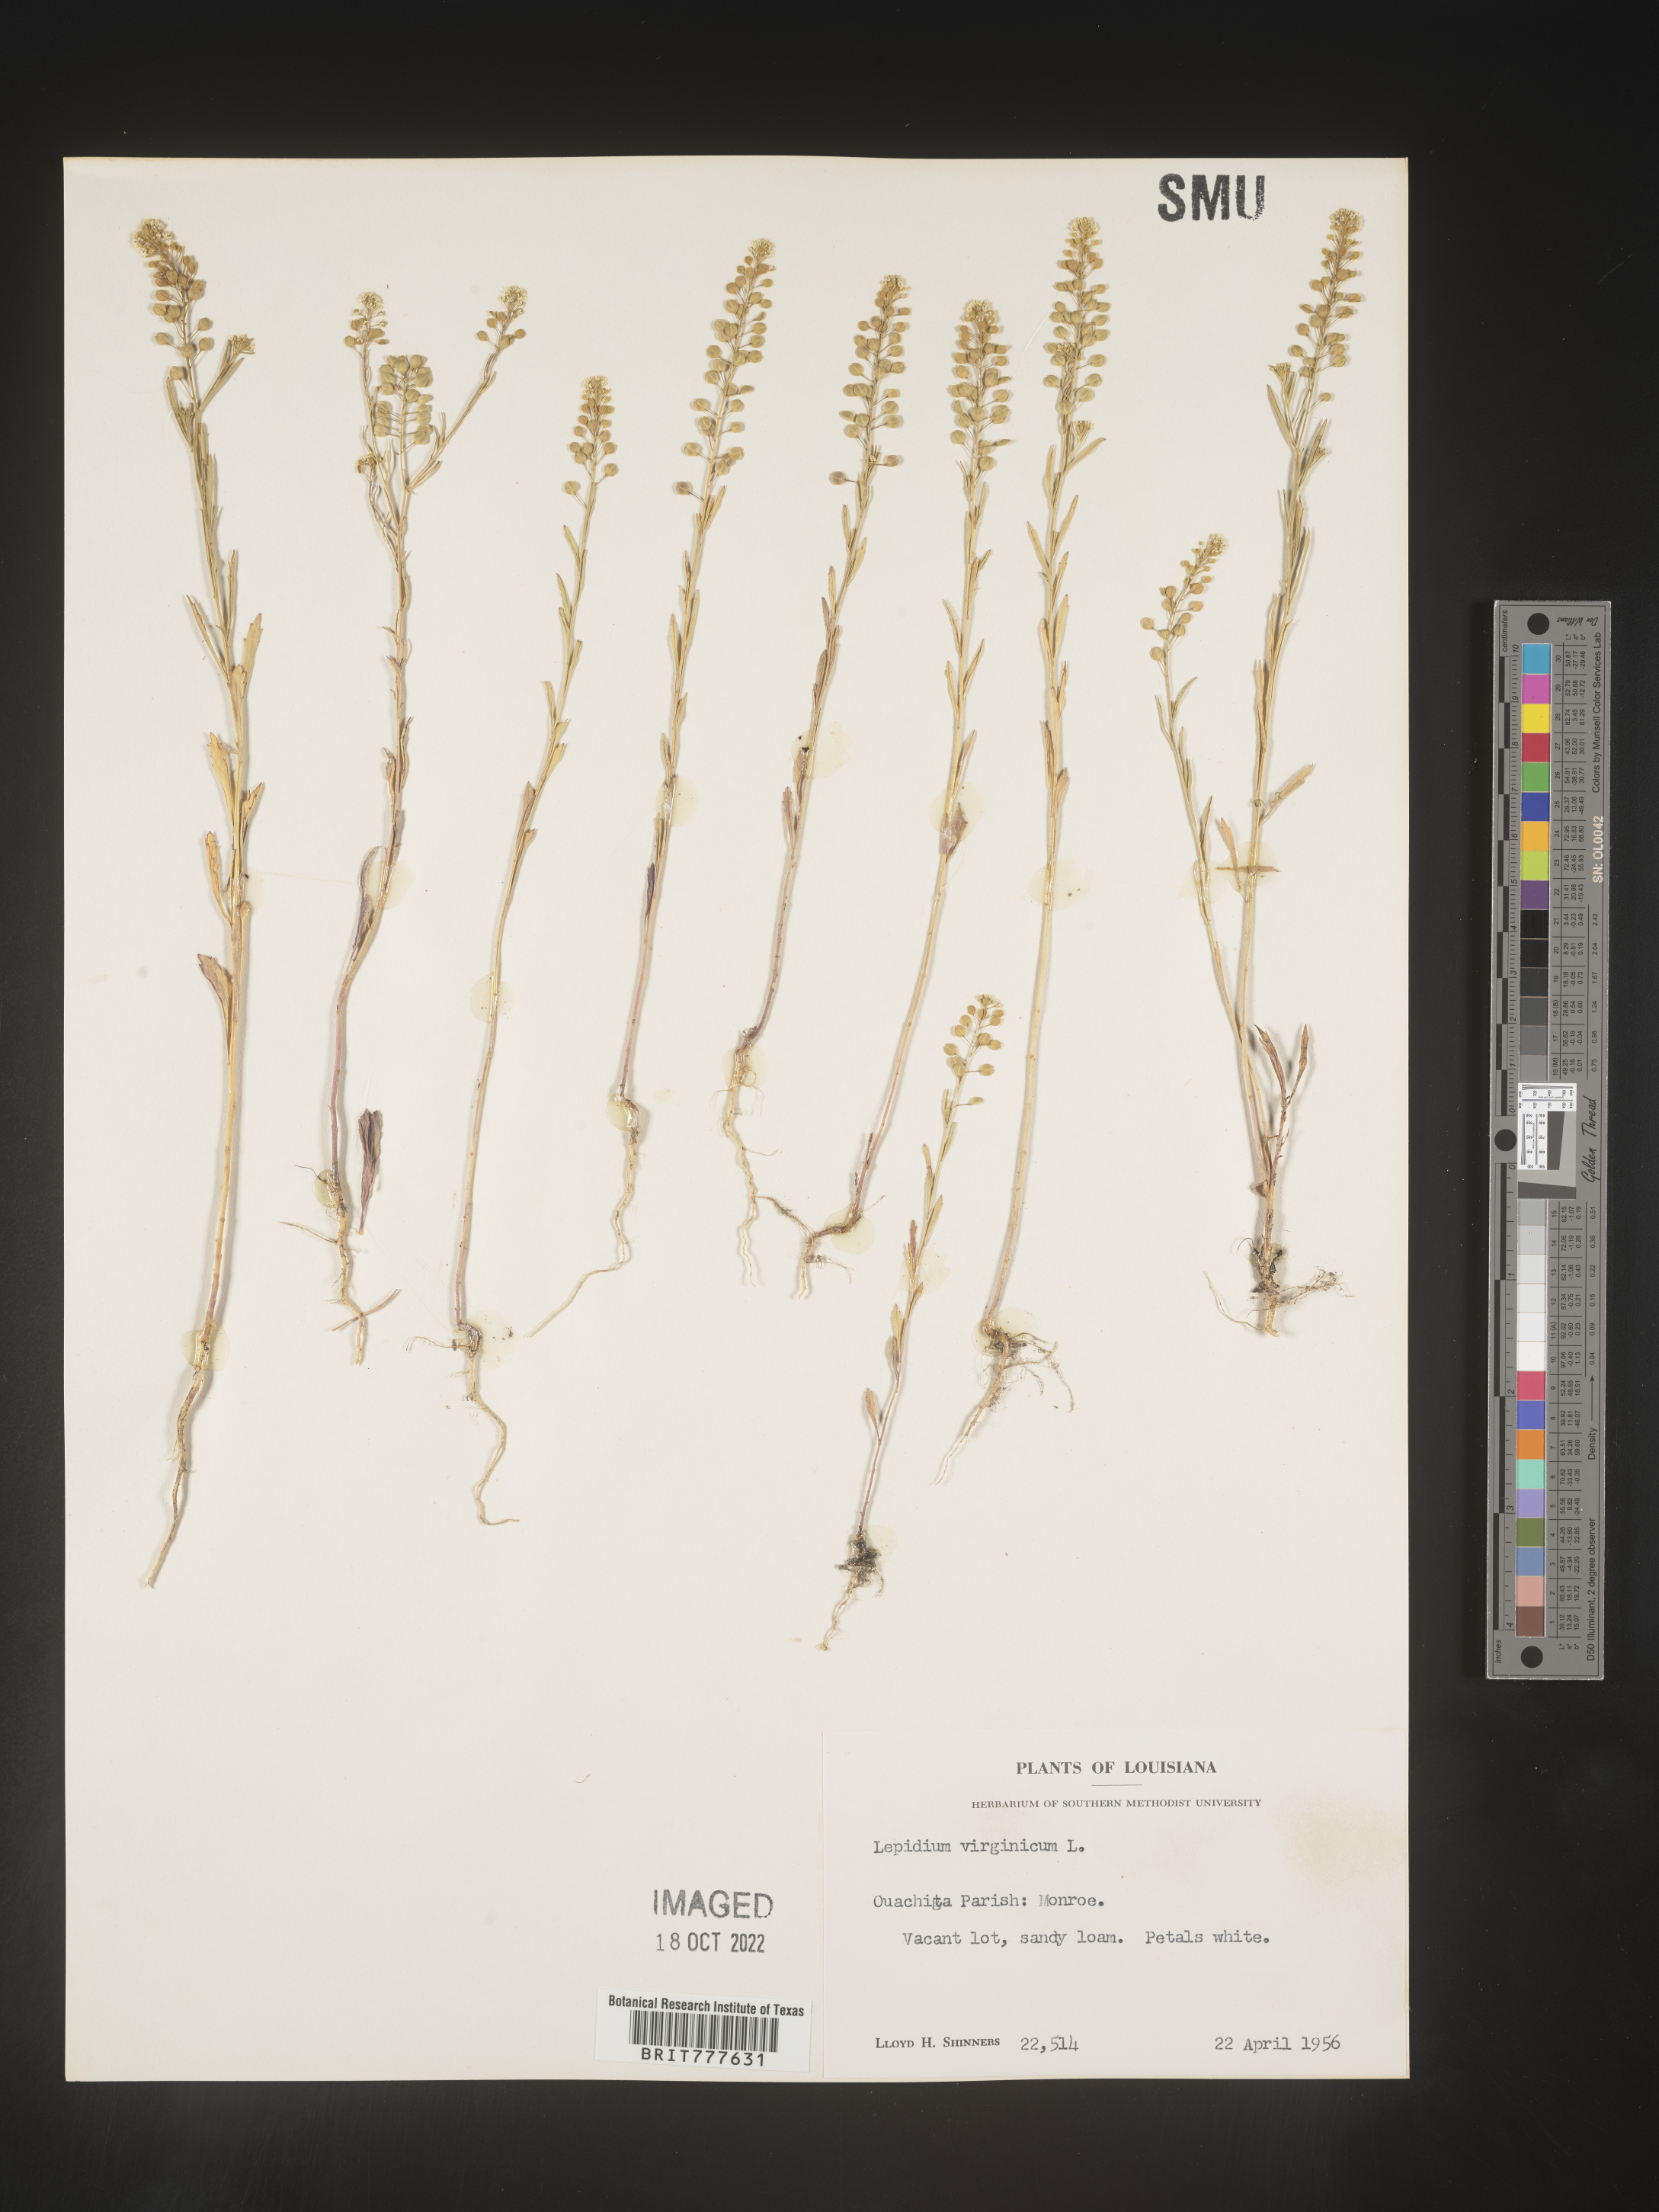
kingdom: Plantae
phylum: Tracheophyta
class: Magnoliopsida
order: Brassicales
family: Brassicaceae
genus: Lepidium
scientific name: Lepidium virginicum
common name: Least pepperwort
